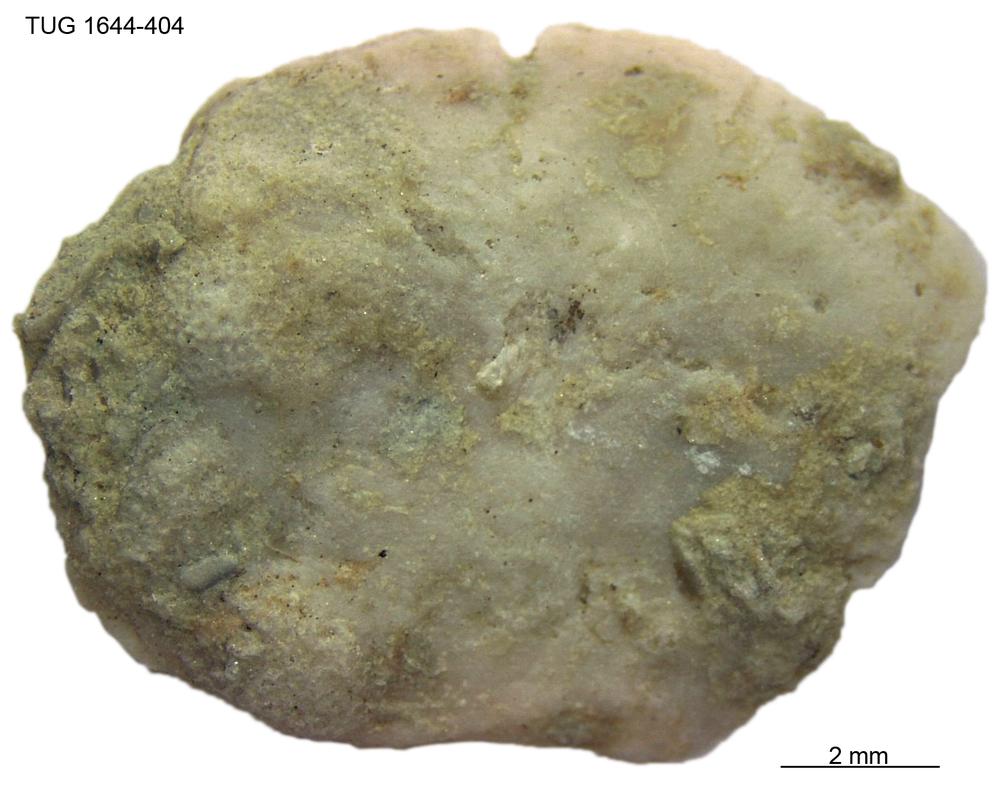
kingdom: Animalia
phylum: Brachiopoda
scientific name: Brachiopoda
